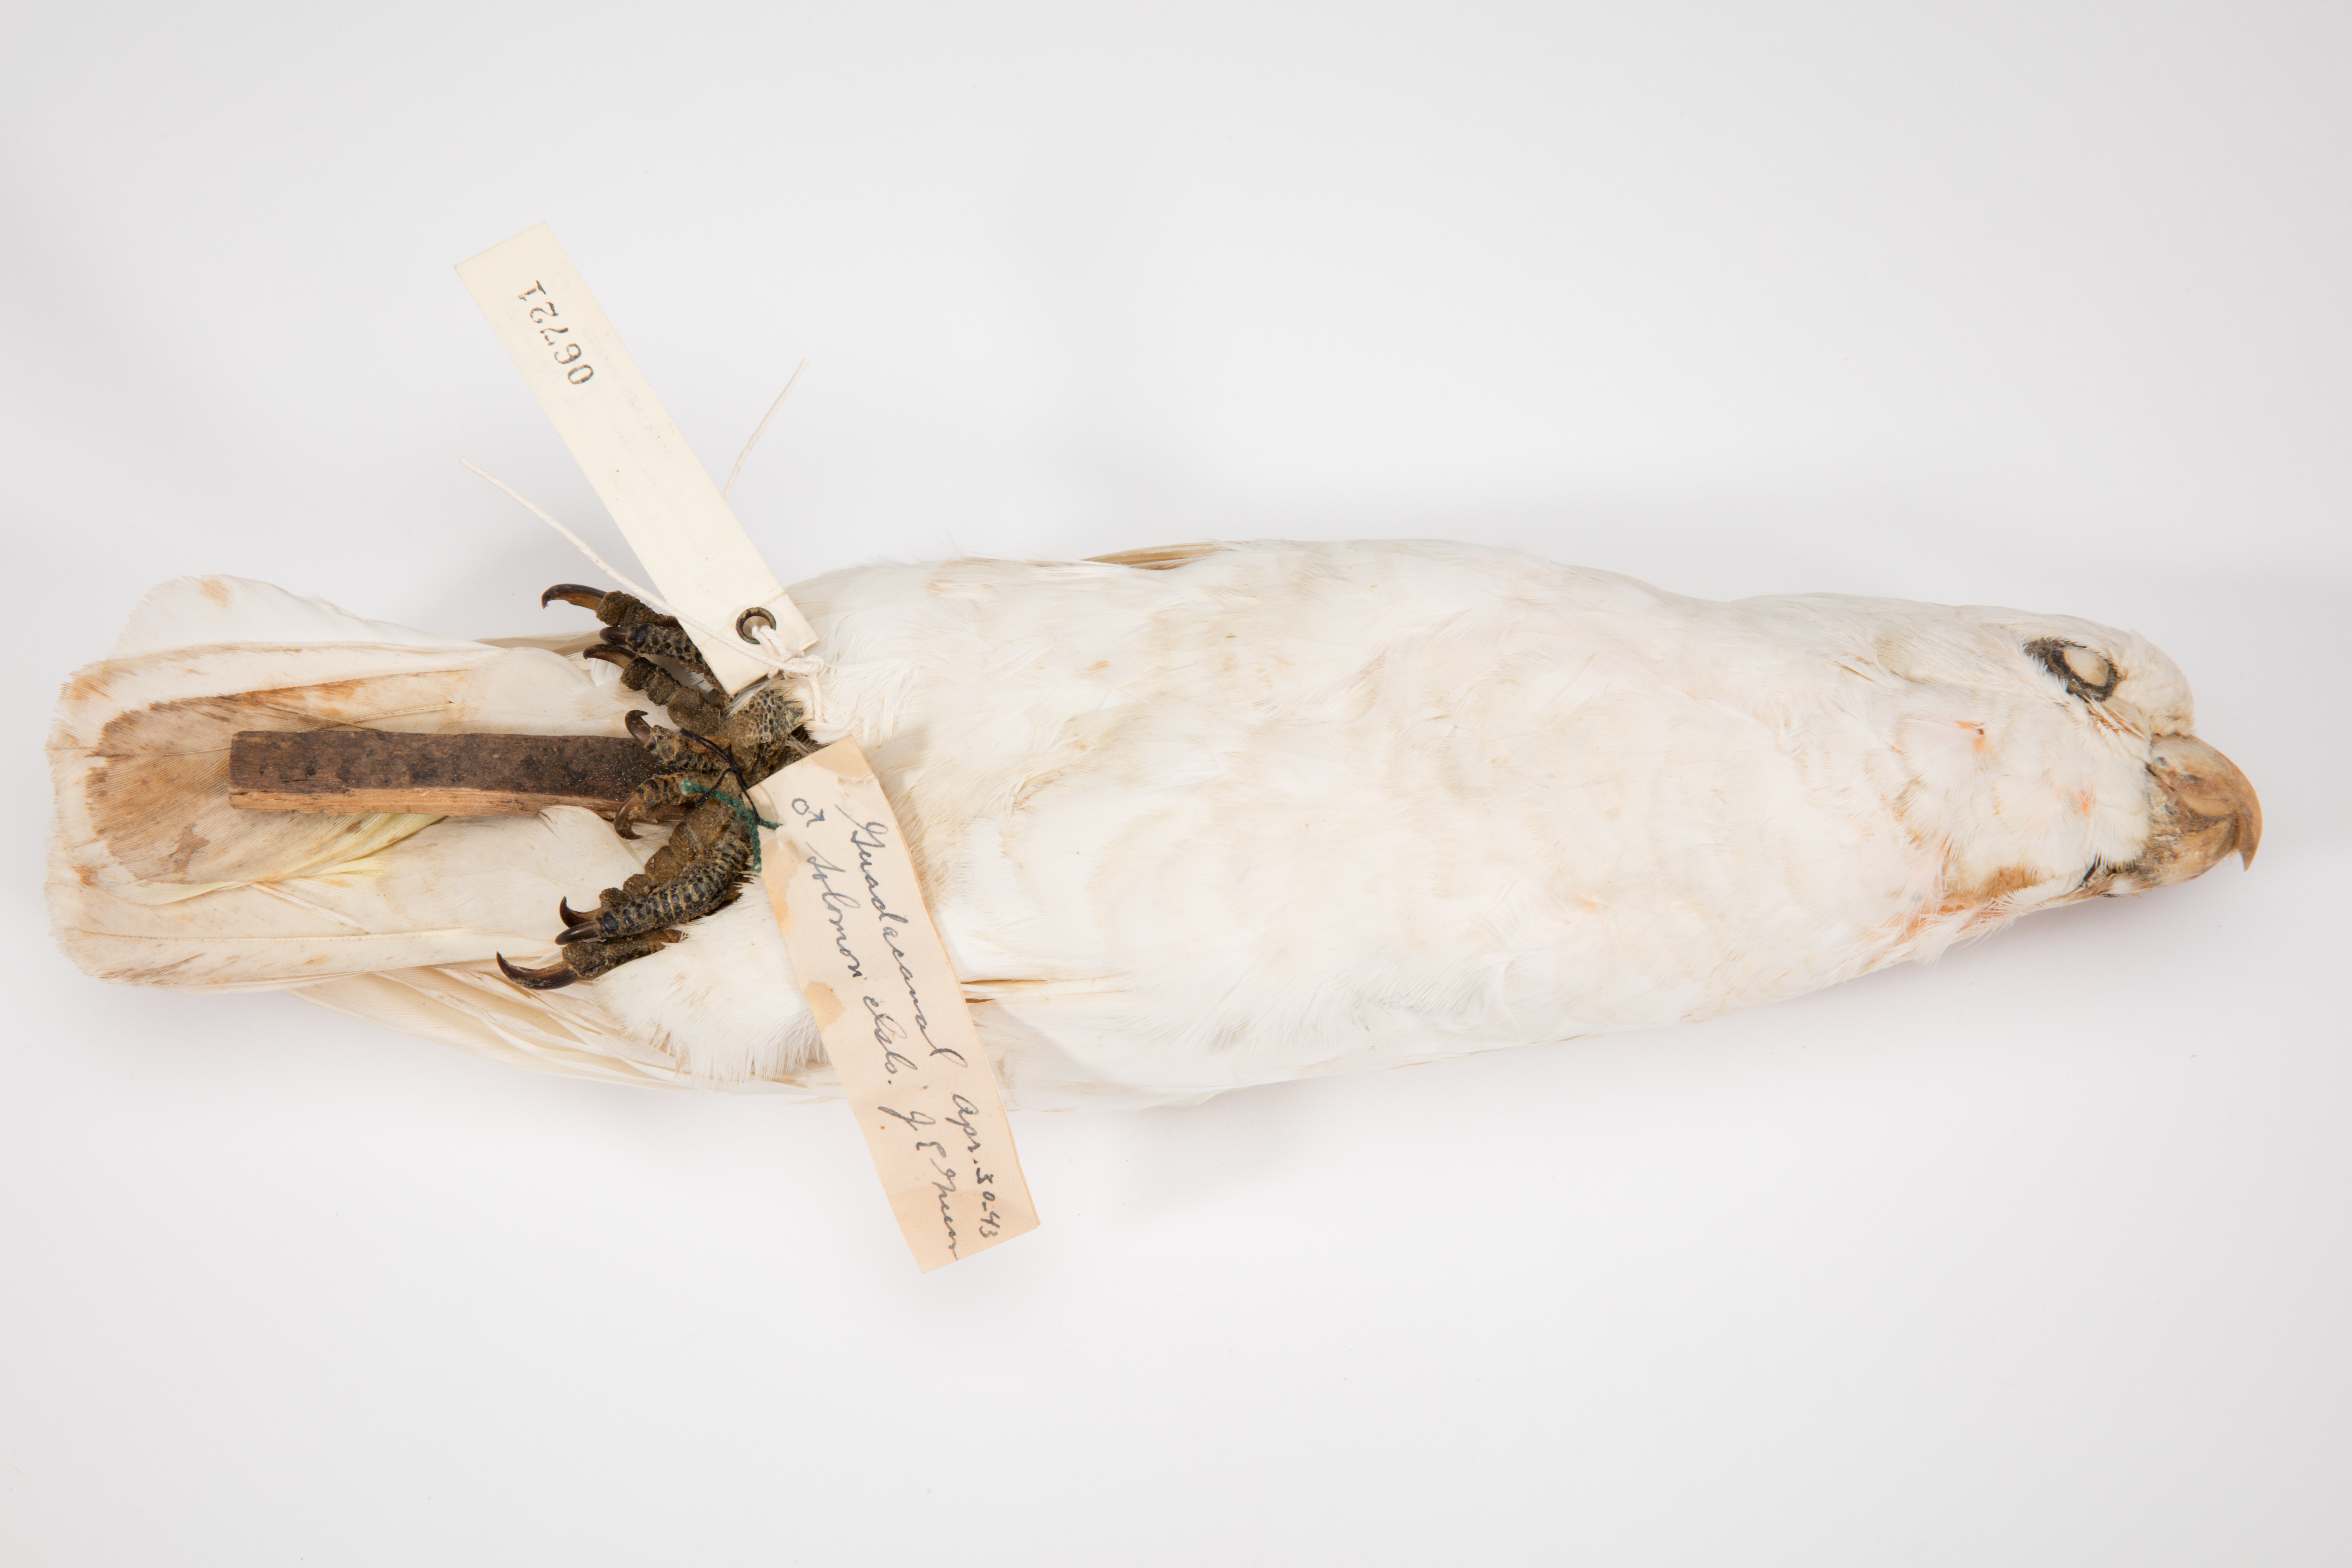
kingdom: Animalia
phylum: Chordata
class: Aves
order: Psittaciformes
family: Psittacidae
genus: Cacatua
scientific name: Cacatua ducorpsii
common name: Broad-crested corella
